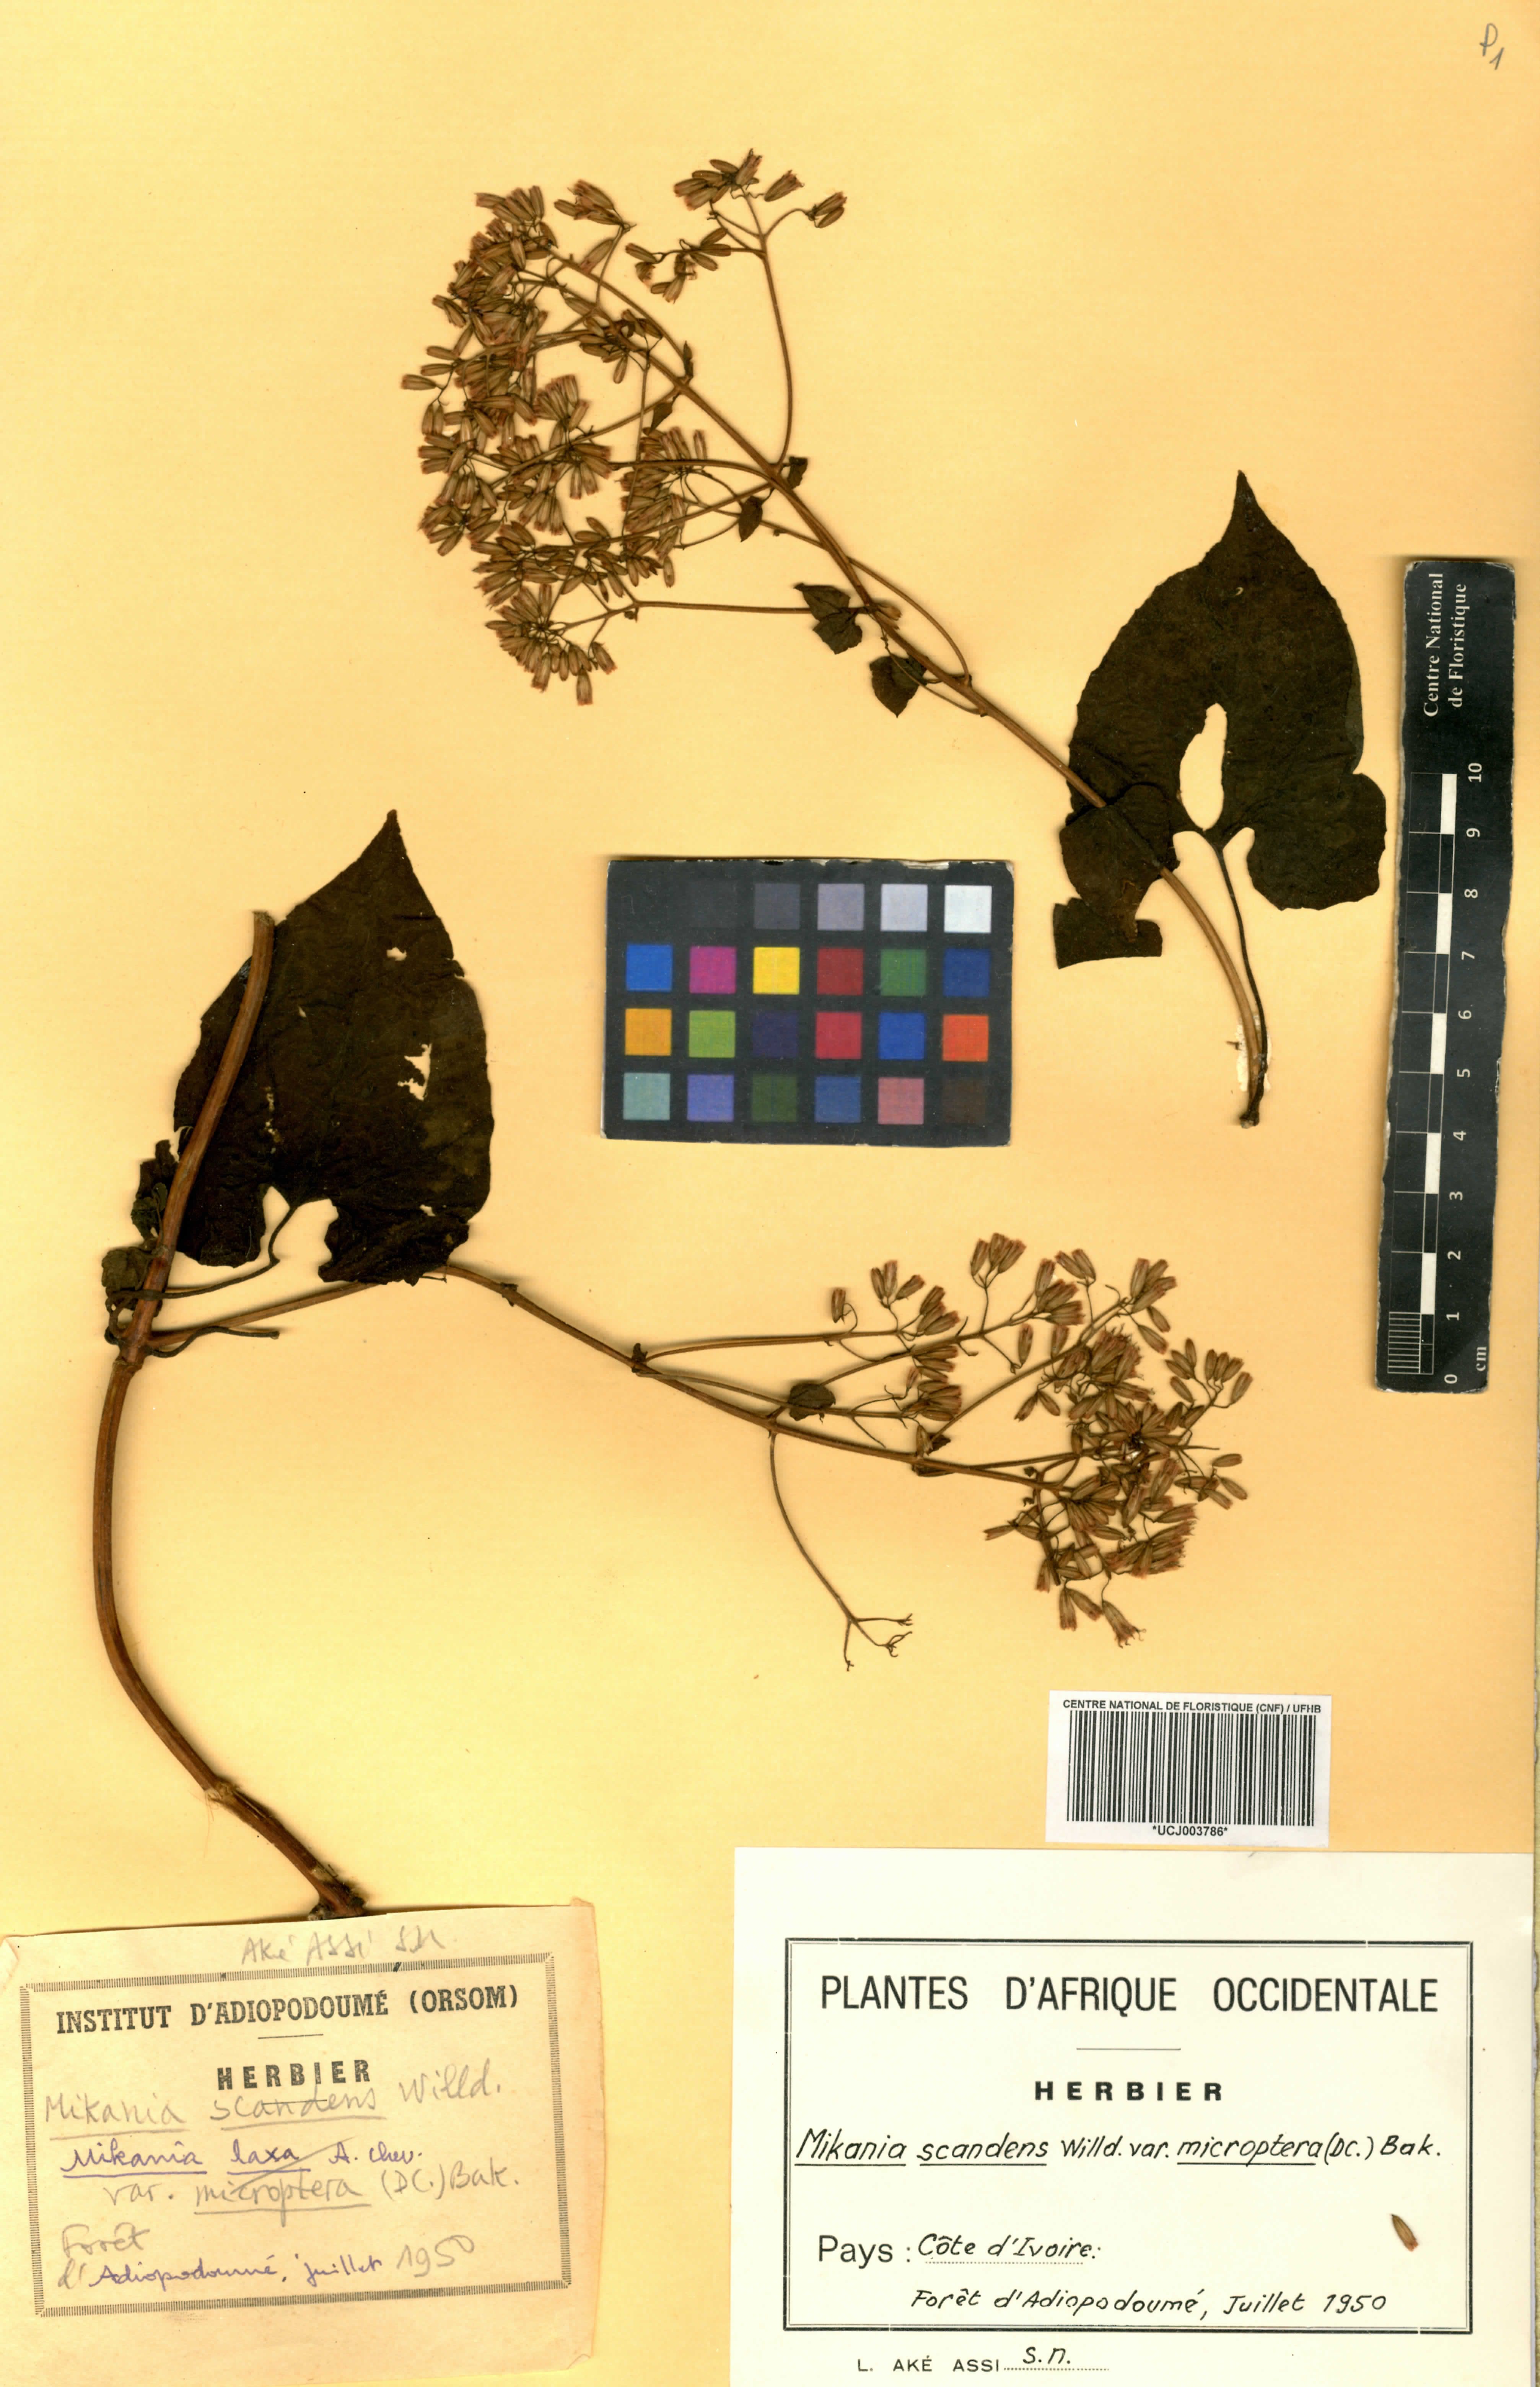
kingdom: Plantae
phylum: Tracheophyta
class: Magnoliopsida
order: Asterales
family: Asteraceae
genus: Mikania
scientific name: Mikania scandens
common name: Climbing hempvine
